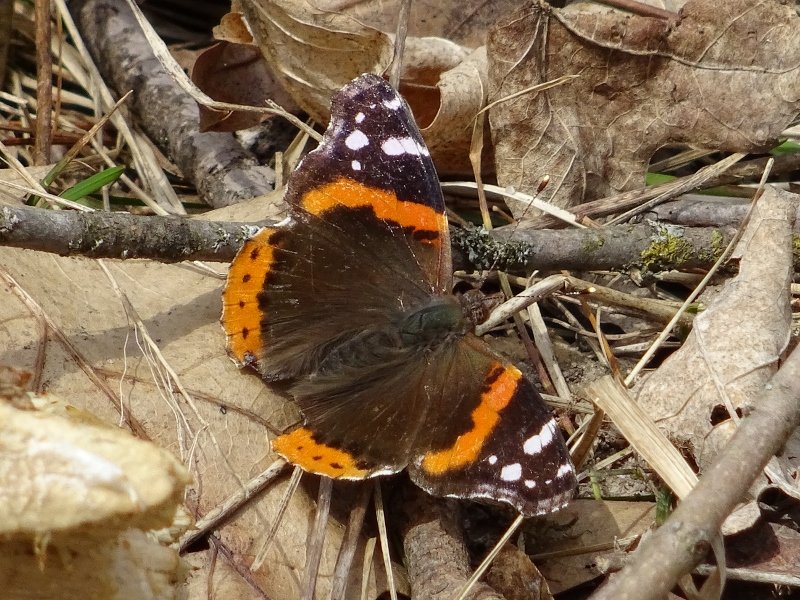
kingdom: Animalia
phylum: Arthropoda
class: Insecta
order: Lepidoptera
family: Nymphalidae
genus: Vanessa
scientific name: Vanessa atalanta
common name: Red Admiral
